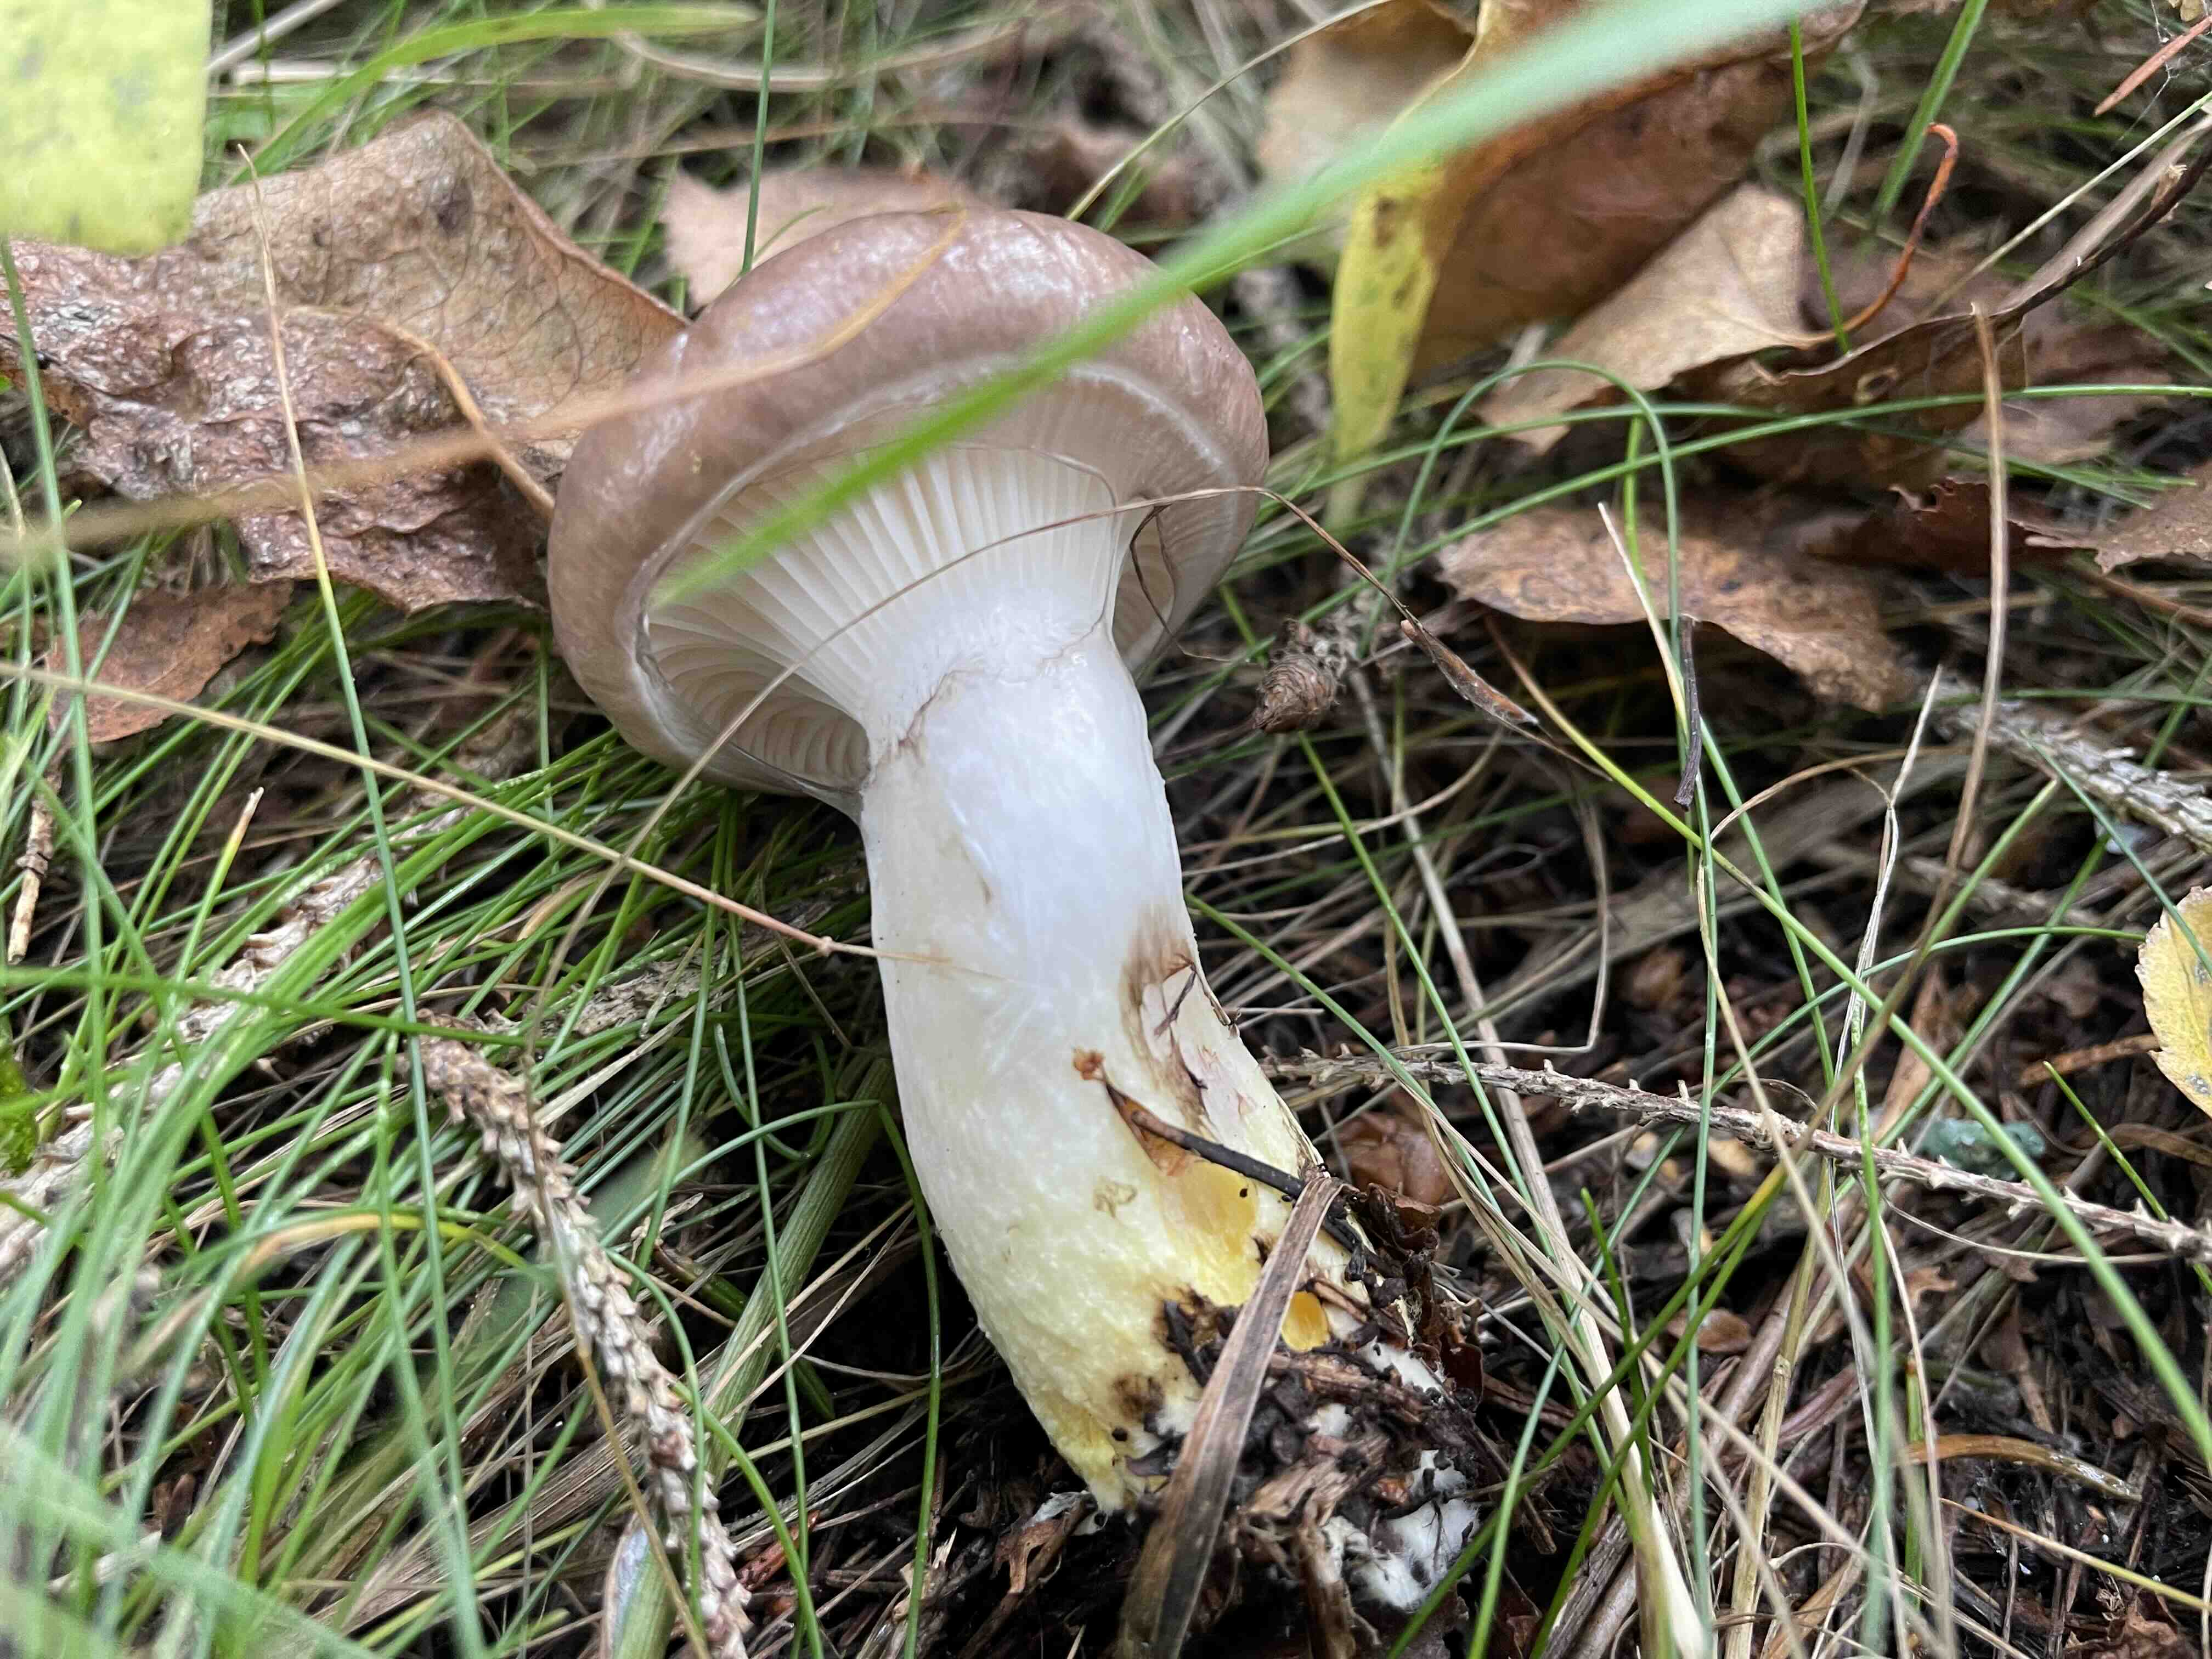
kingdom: Fungi
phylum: Basidiomycota
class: Agaricomycetes
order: Boletales
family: Gomphidiaceae
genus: Gomphidius
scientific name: Gomphidius glutinosus
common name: grå slimslør
